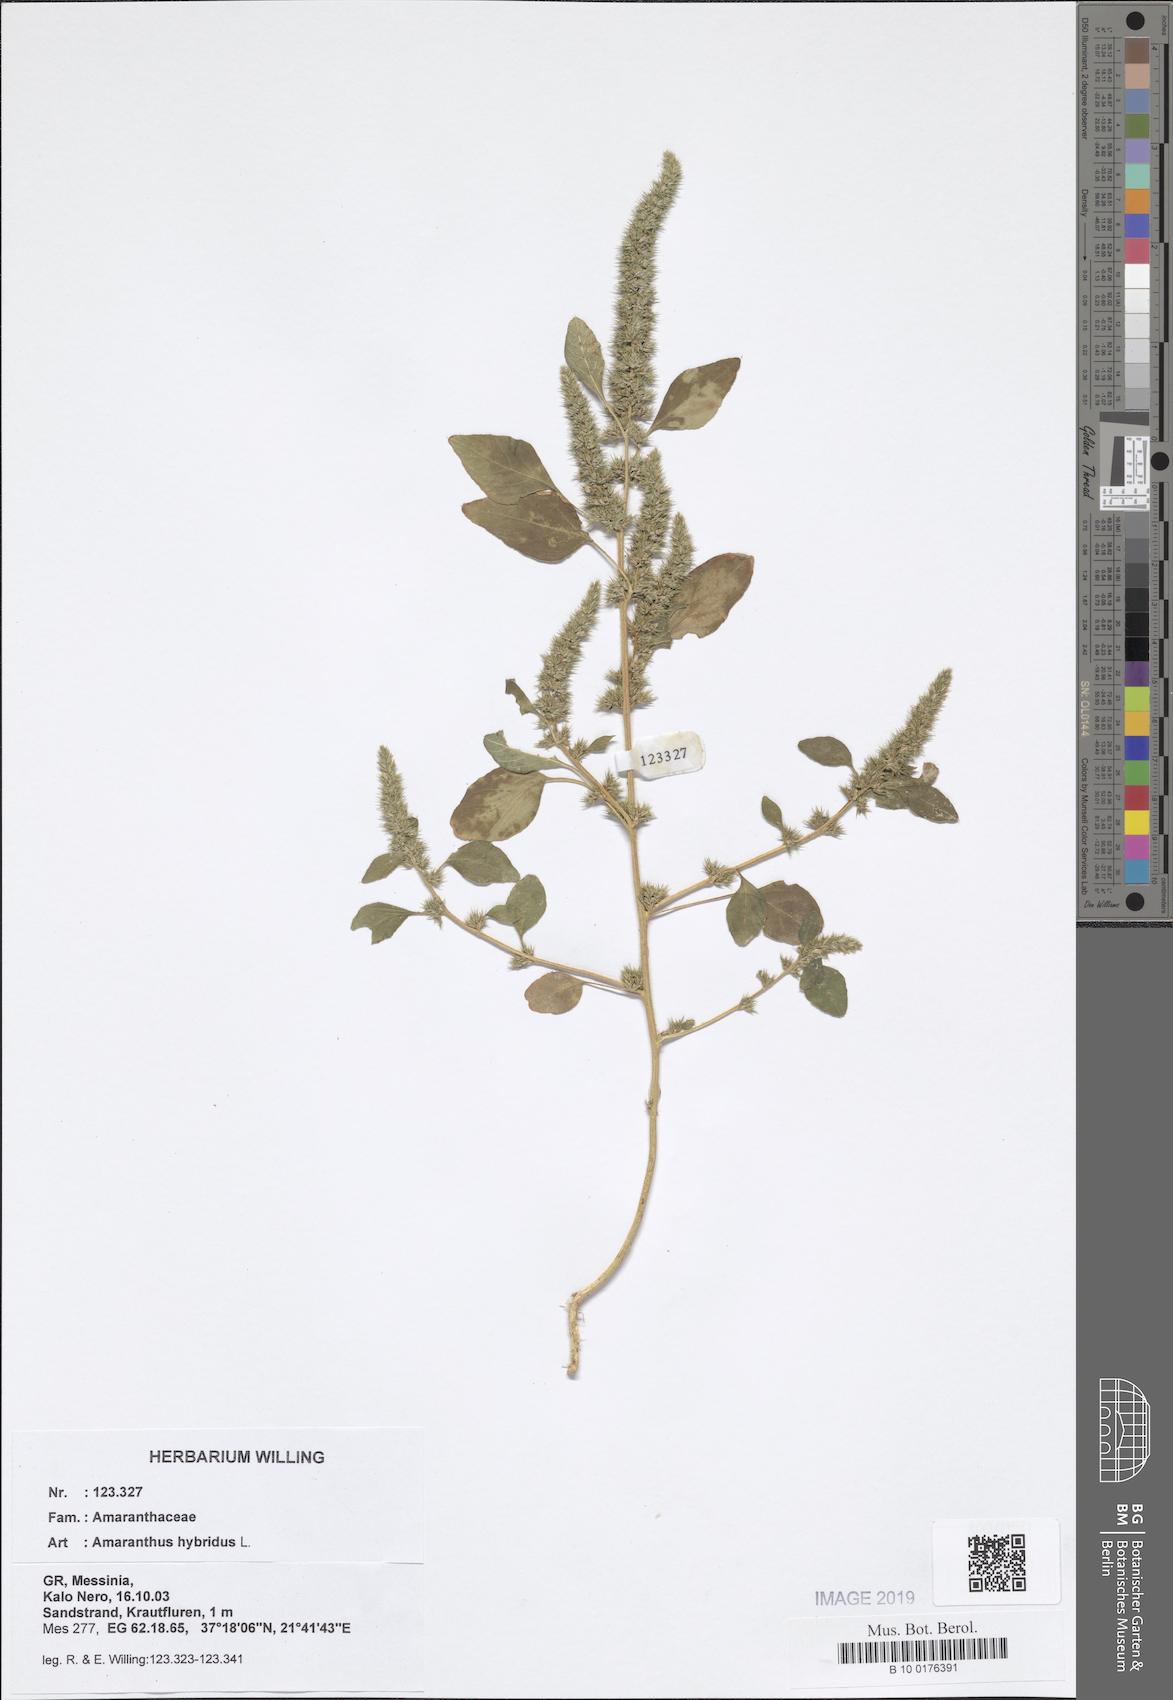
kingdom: Plantae
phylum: Tracheophyta
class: Magnoliopsida
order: Caryophyllales
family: Amaranthaceae
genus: Amaranthus
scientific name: Amaranthus hybridus
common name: Green amaranth
